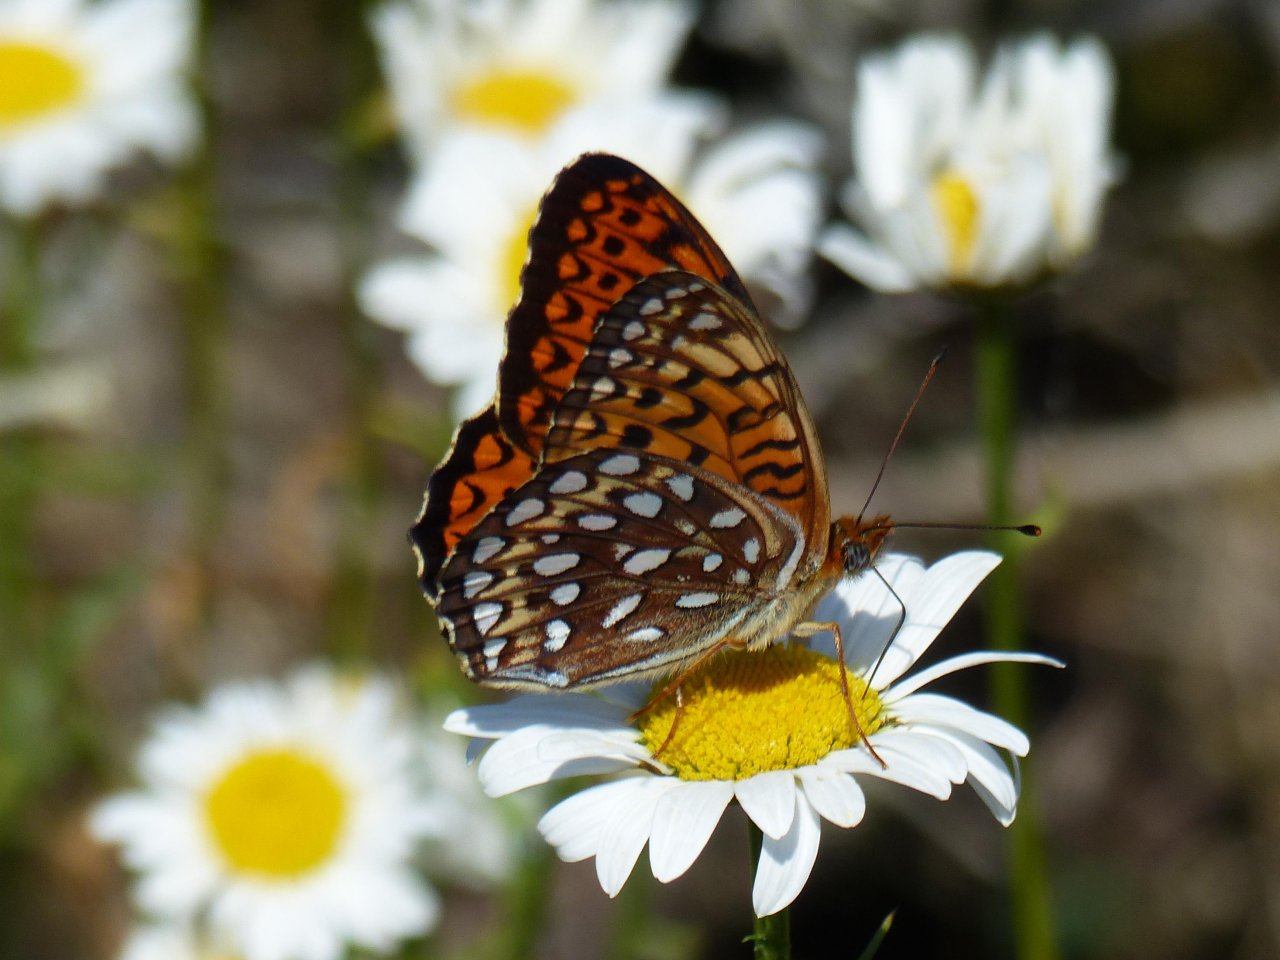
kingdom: Animalia
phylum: Arthropoda
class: Insecta
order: Lepidoptera
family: Nymphalidae
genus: Speyeria
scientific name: Speyeria atlantis
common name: Atlantis Fritillary
